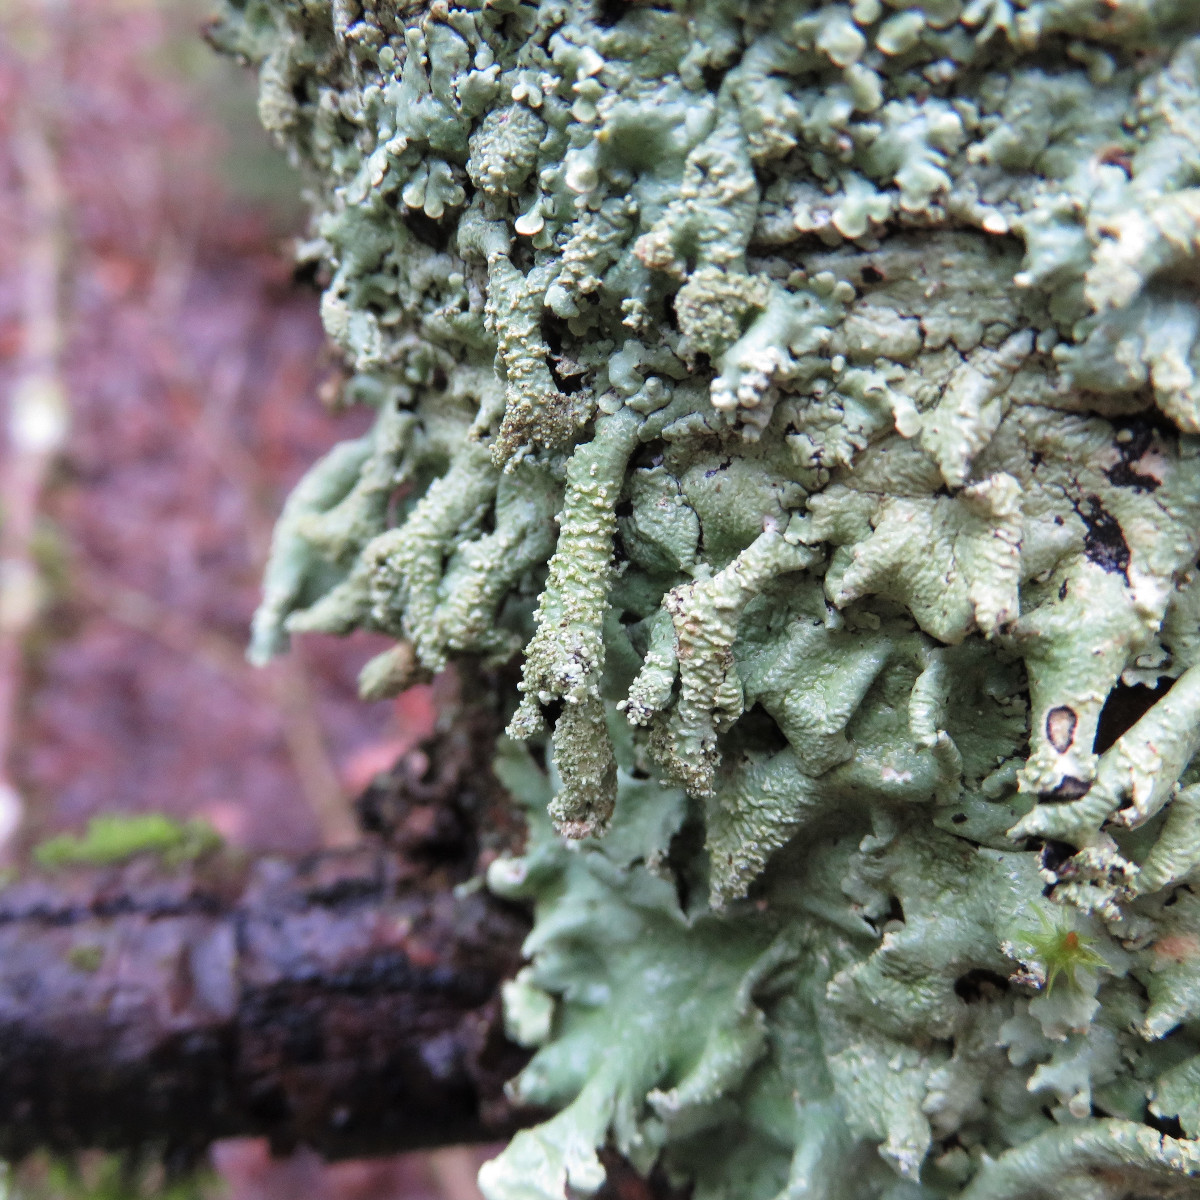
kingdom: Fungi
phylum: Ascomycota
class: Lecanoromycetes
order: Lecanorales
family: Parmeliaceae
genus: Flavoparmelia
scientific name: Flavoparmelia caperata
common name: gulgrøn skållav
